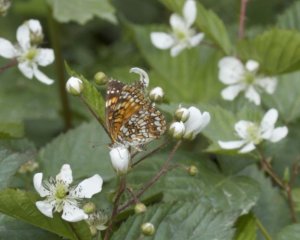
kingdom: Animalia
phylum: Arthropoda
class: Insecta
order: Lepidoptera
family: Nymphalidae
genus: Chlosyne
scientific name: Chlosyne harrisii
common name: Harris's Checkerspot
